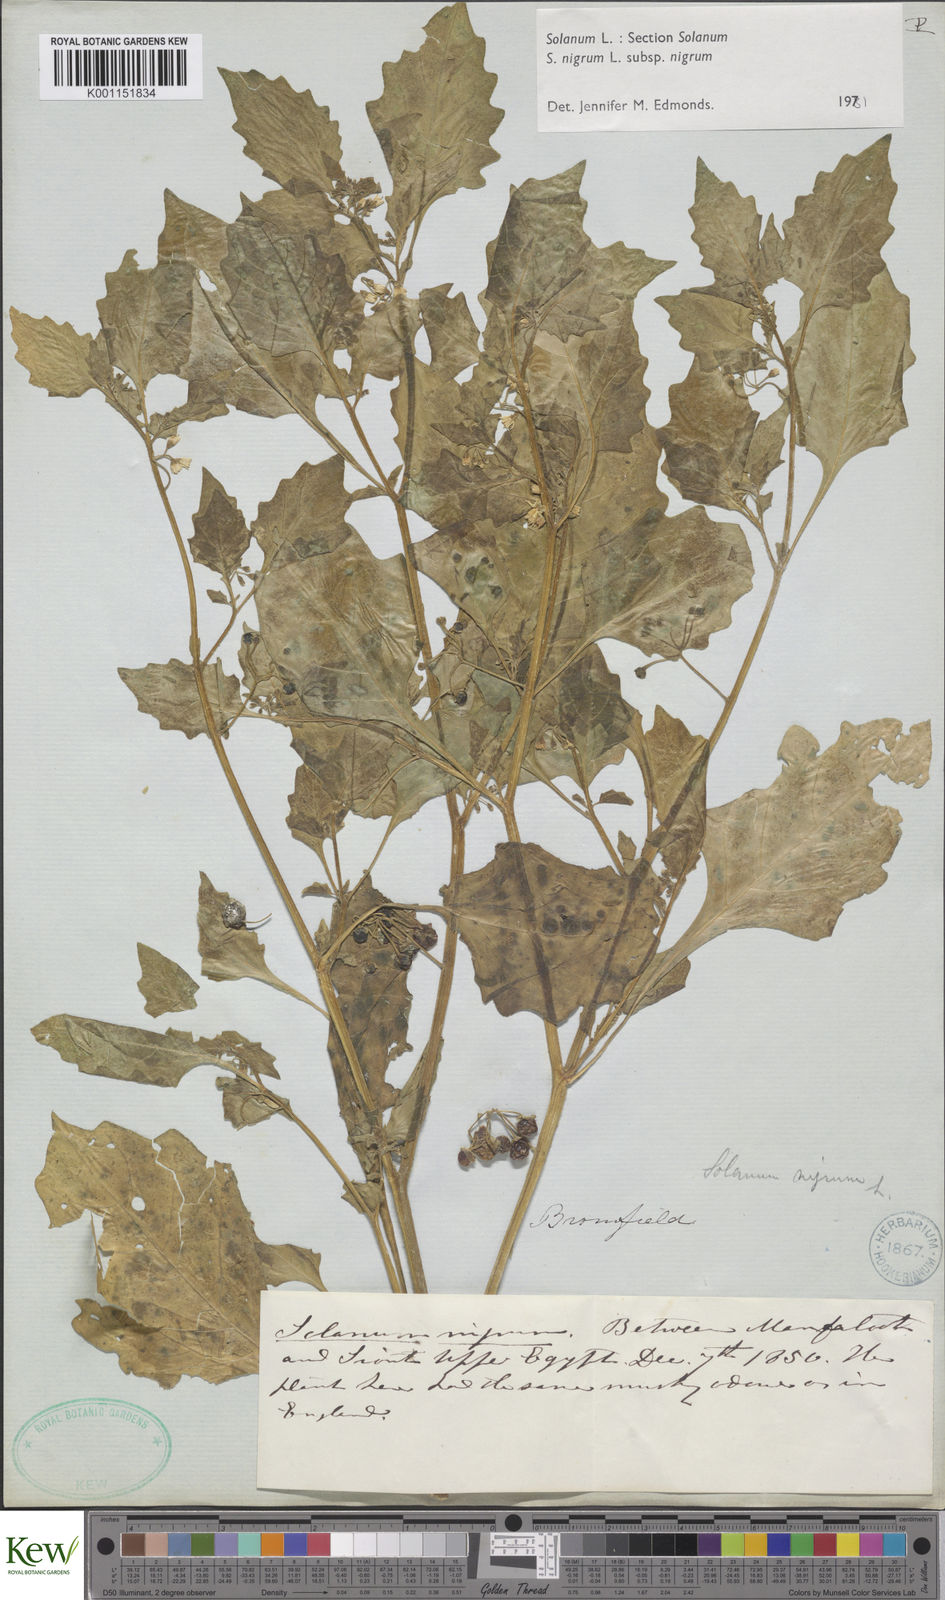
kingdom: Plantae
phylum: Tracheophyta
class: Magnoliopsida
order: Solanales
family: Solanaceae
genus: Solanum
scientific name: Solanum nigrum
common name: Black nightshade
